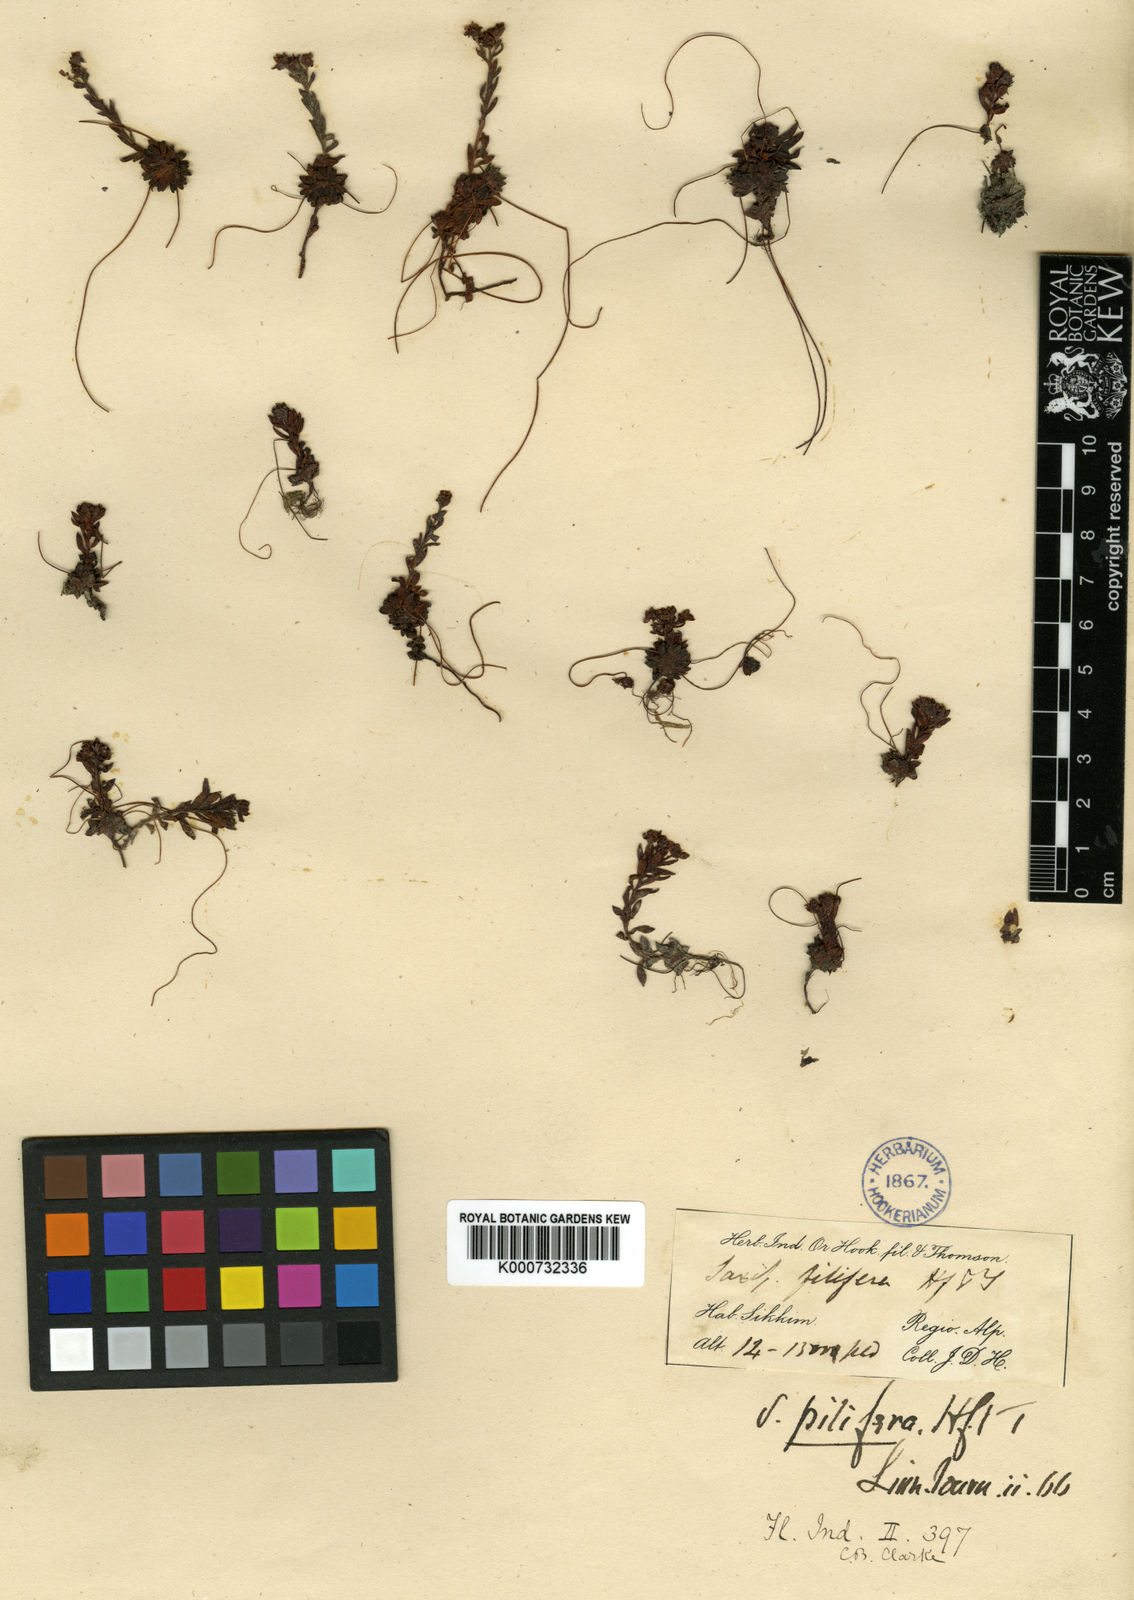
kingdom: Plantae
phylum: Tracheophyta
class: Magnoliopsida
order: Saxifragales
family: Saxifragaceae
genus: Saxifraga
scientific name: Saxifraga pilifera
